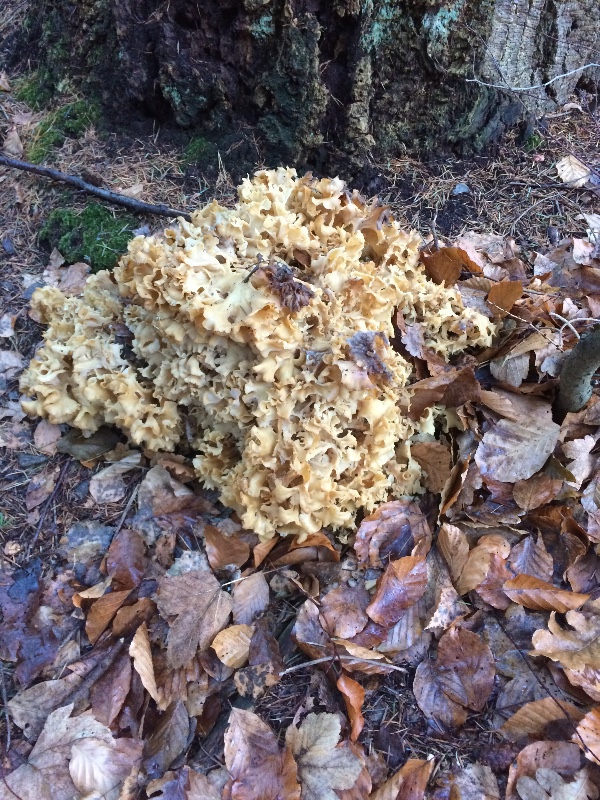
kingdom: Fungi
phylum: Basidiomycota
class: Agaricomycetes
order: Polyporales
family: Sparassidaceae
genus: Sparassis
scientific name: Sparassis crispa
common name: kruset blomkålssvamp
